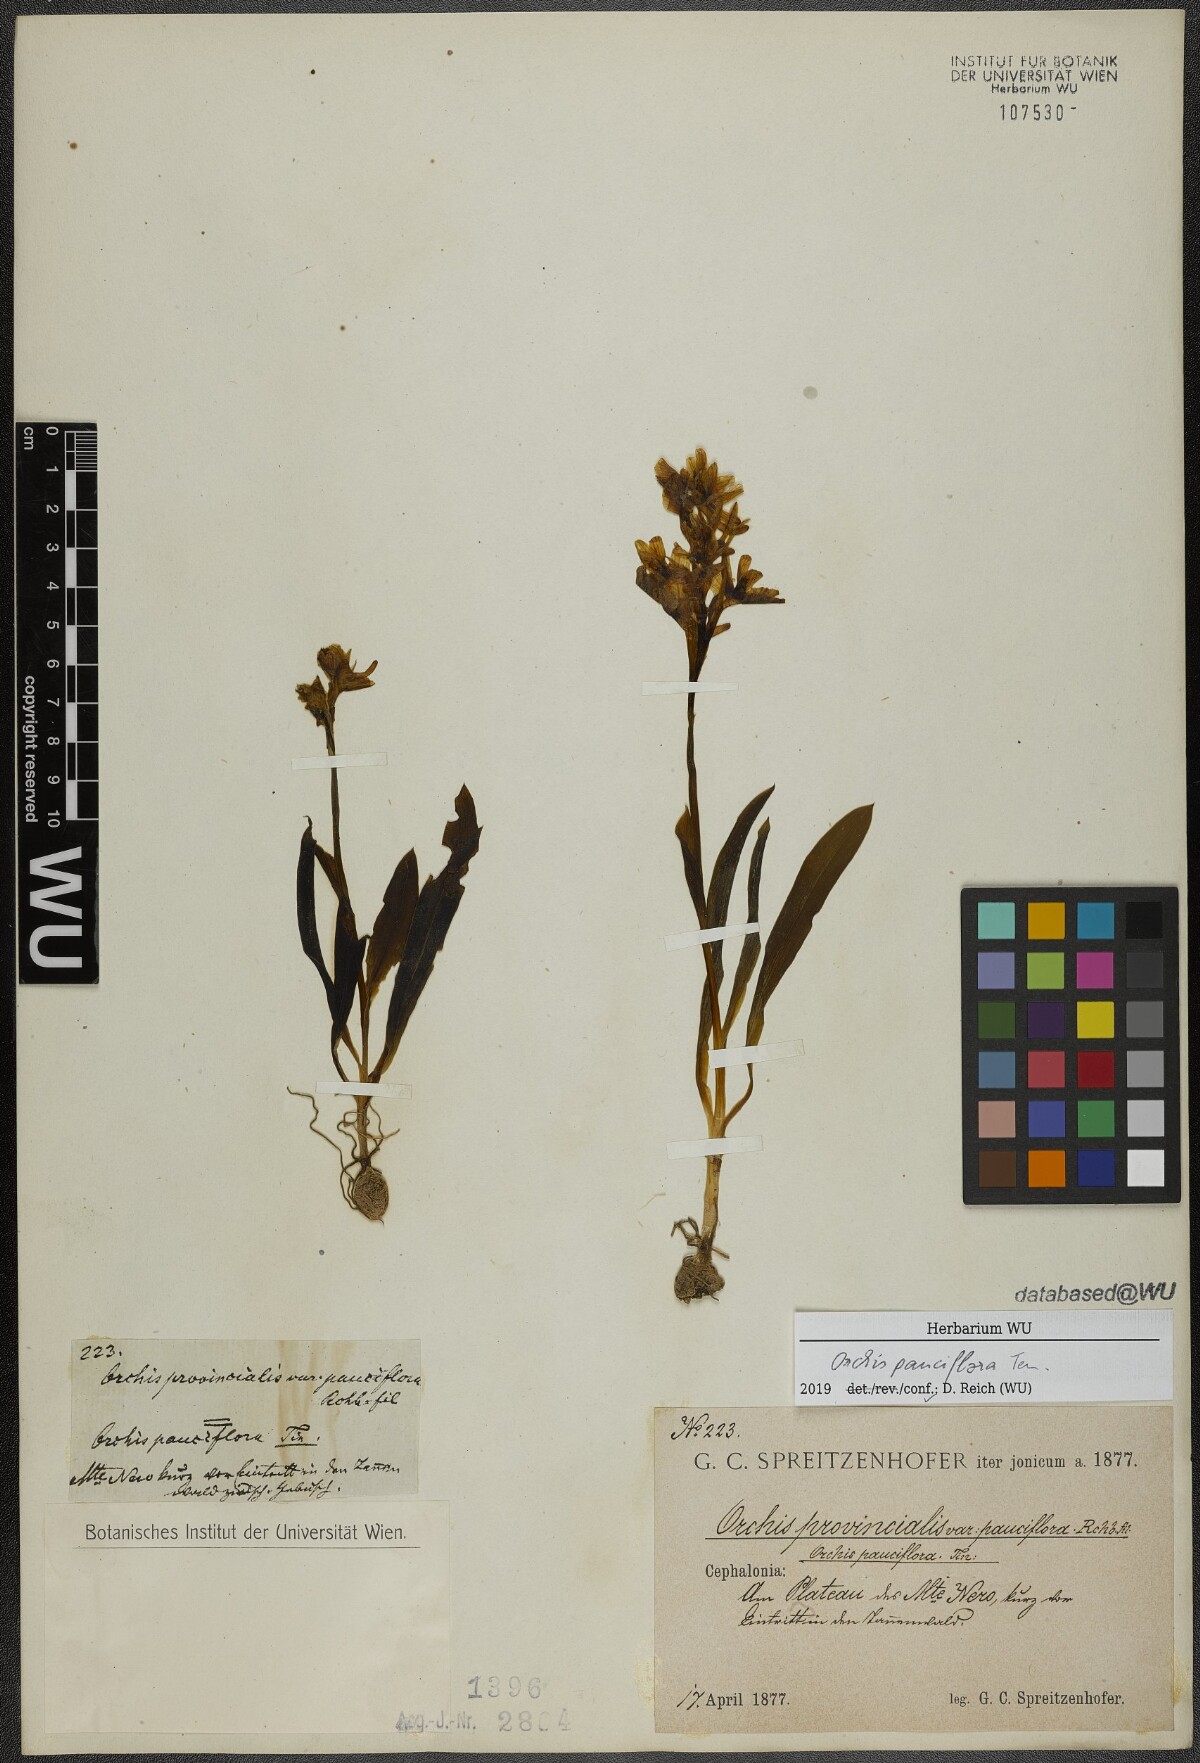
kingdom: Plantae
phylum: Tracheophyta
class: Liliopsida
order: Asparagales
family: Orchidaceae
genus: Orchis
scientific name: Orchis pauciflora
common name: Few-flowered orchid
